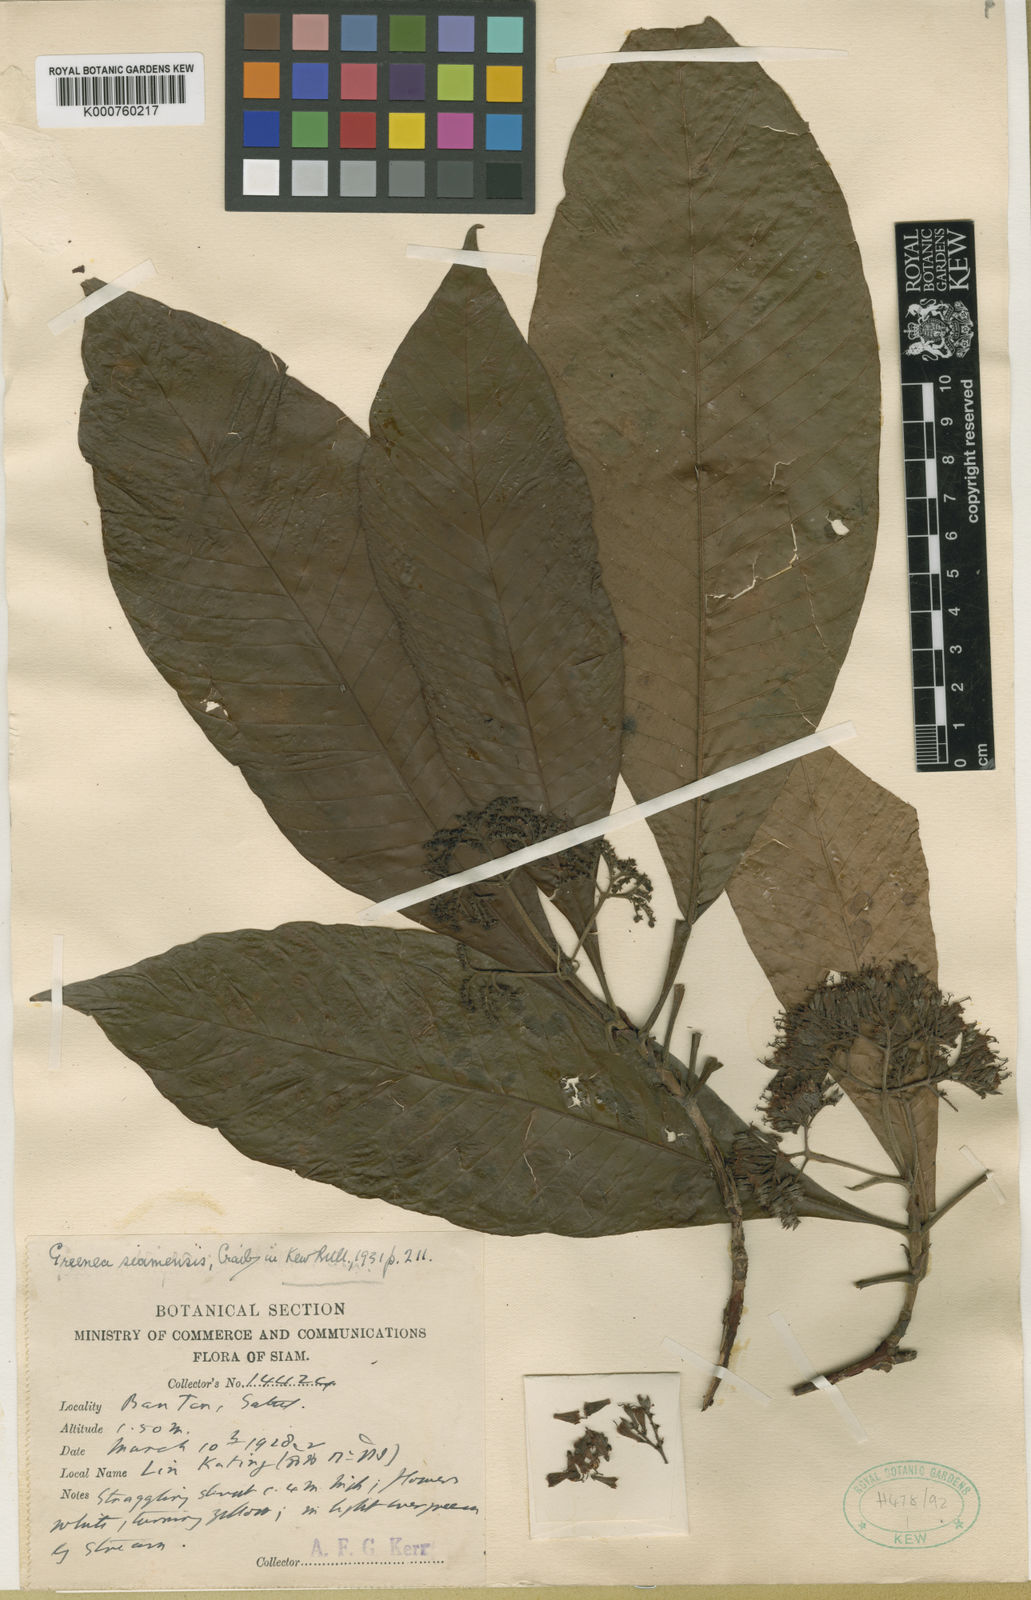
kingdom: Plantae
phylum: Tracheophyta
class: Magnoliopsida
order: Gentianales
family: Rubiaceae
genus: Greenea
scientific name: Greenea corymbosa
